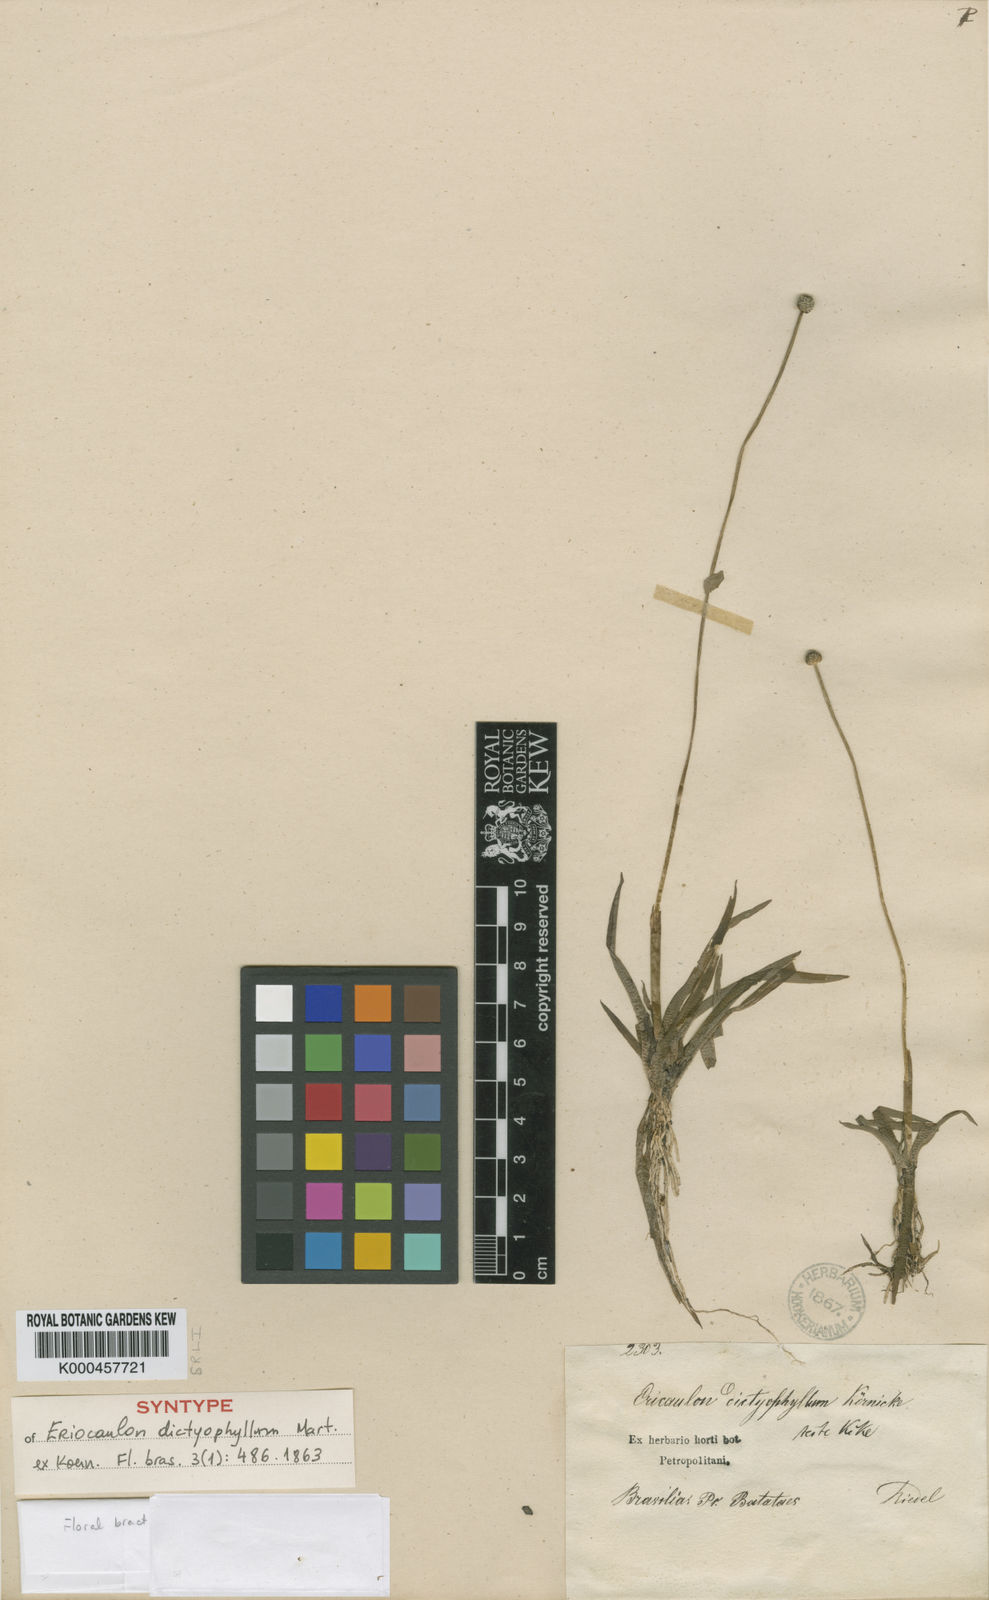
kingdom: Plantae
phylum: Tracheophyta
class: Liliopsida
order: Poales
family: Eriocaulaceae
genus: Eriocaulon
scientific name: Eriocaulon
